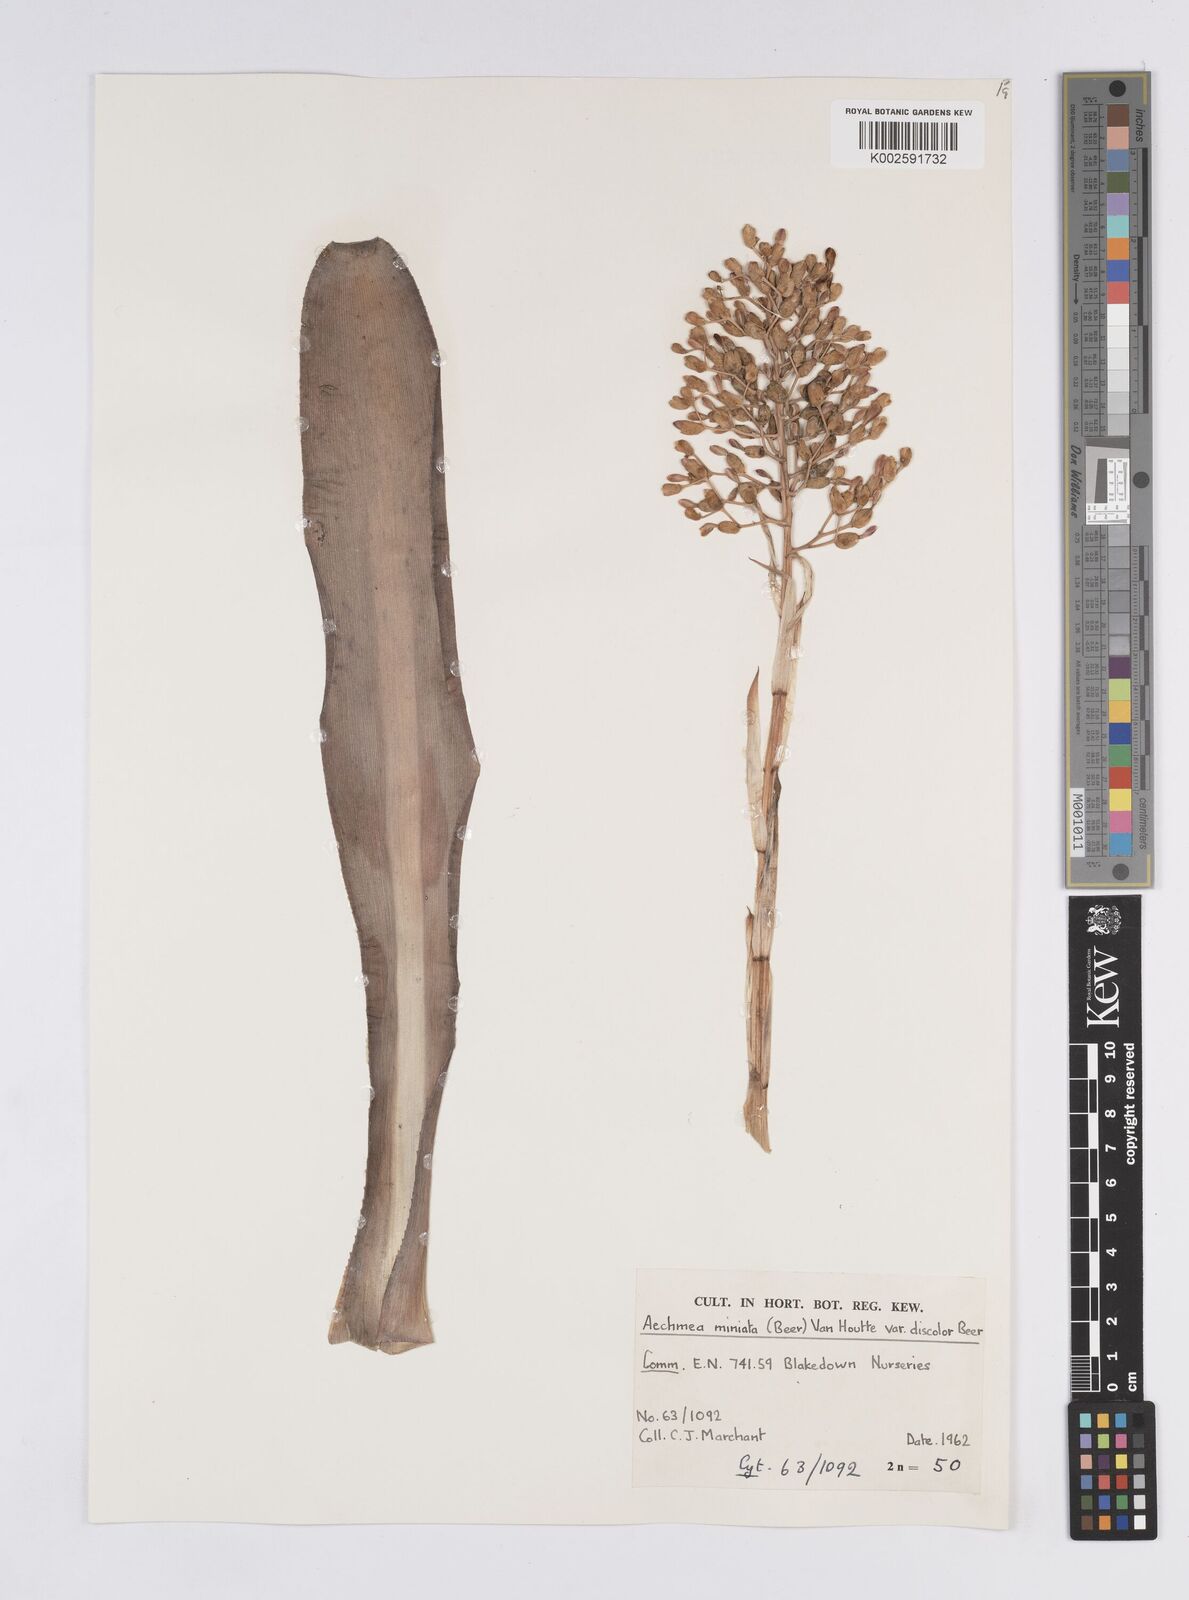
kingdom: Plantae
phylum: Tracheophyta
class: Liliopsida
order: Poales
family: Bromeliaceae
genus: Aechmea
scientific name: Aechmea miniata
